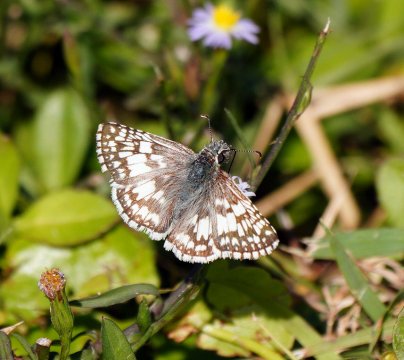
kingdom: Animalia
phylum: Arthropoda
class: Insecta
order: Lepidoptera
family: Hesperiidae
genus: Pyrgus
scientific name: Pyrgus communis
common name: White Checkered-Skipper
